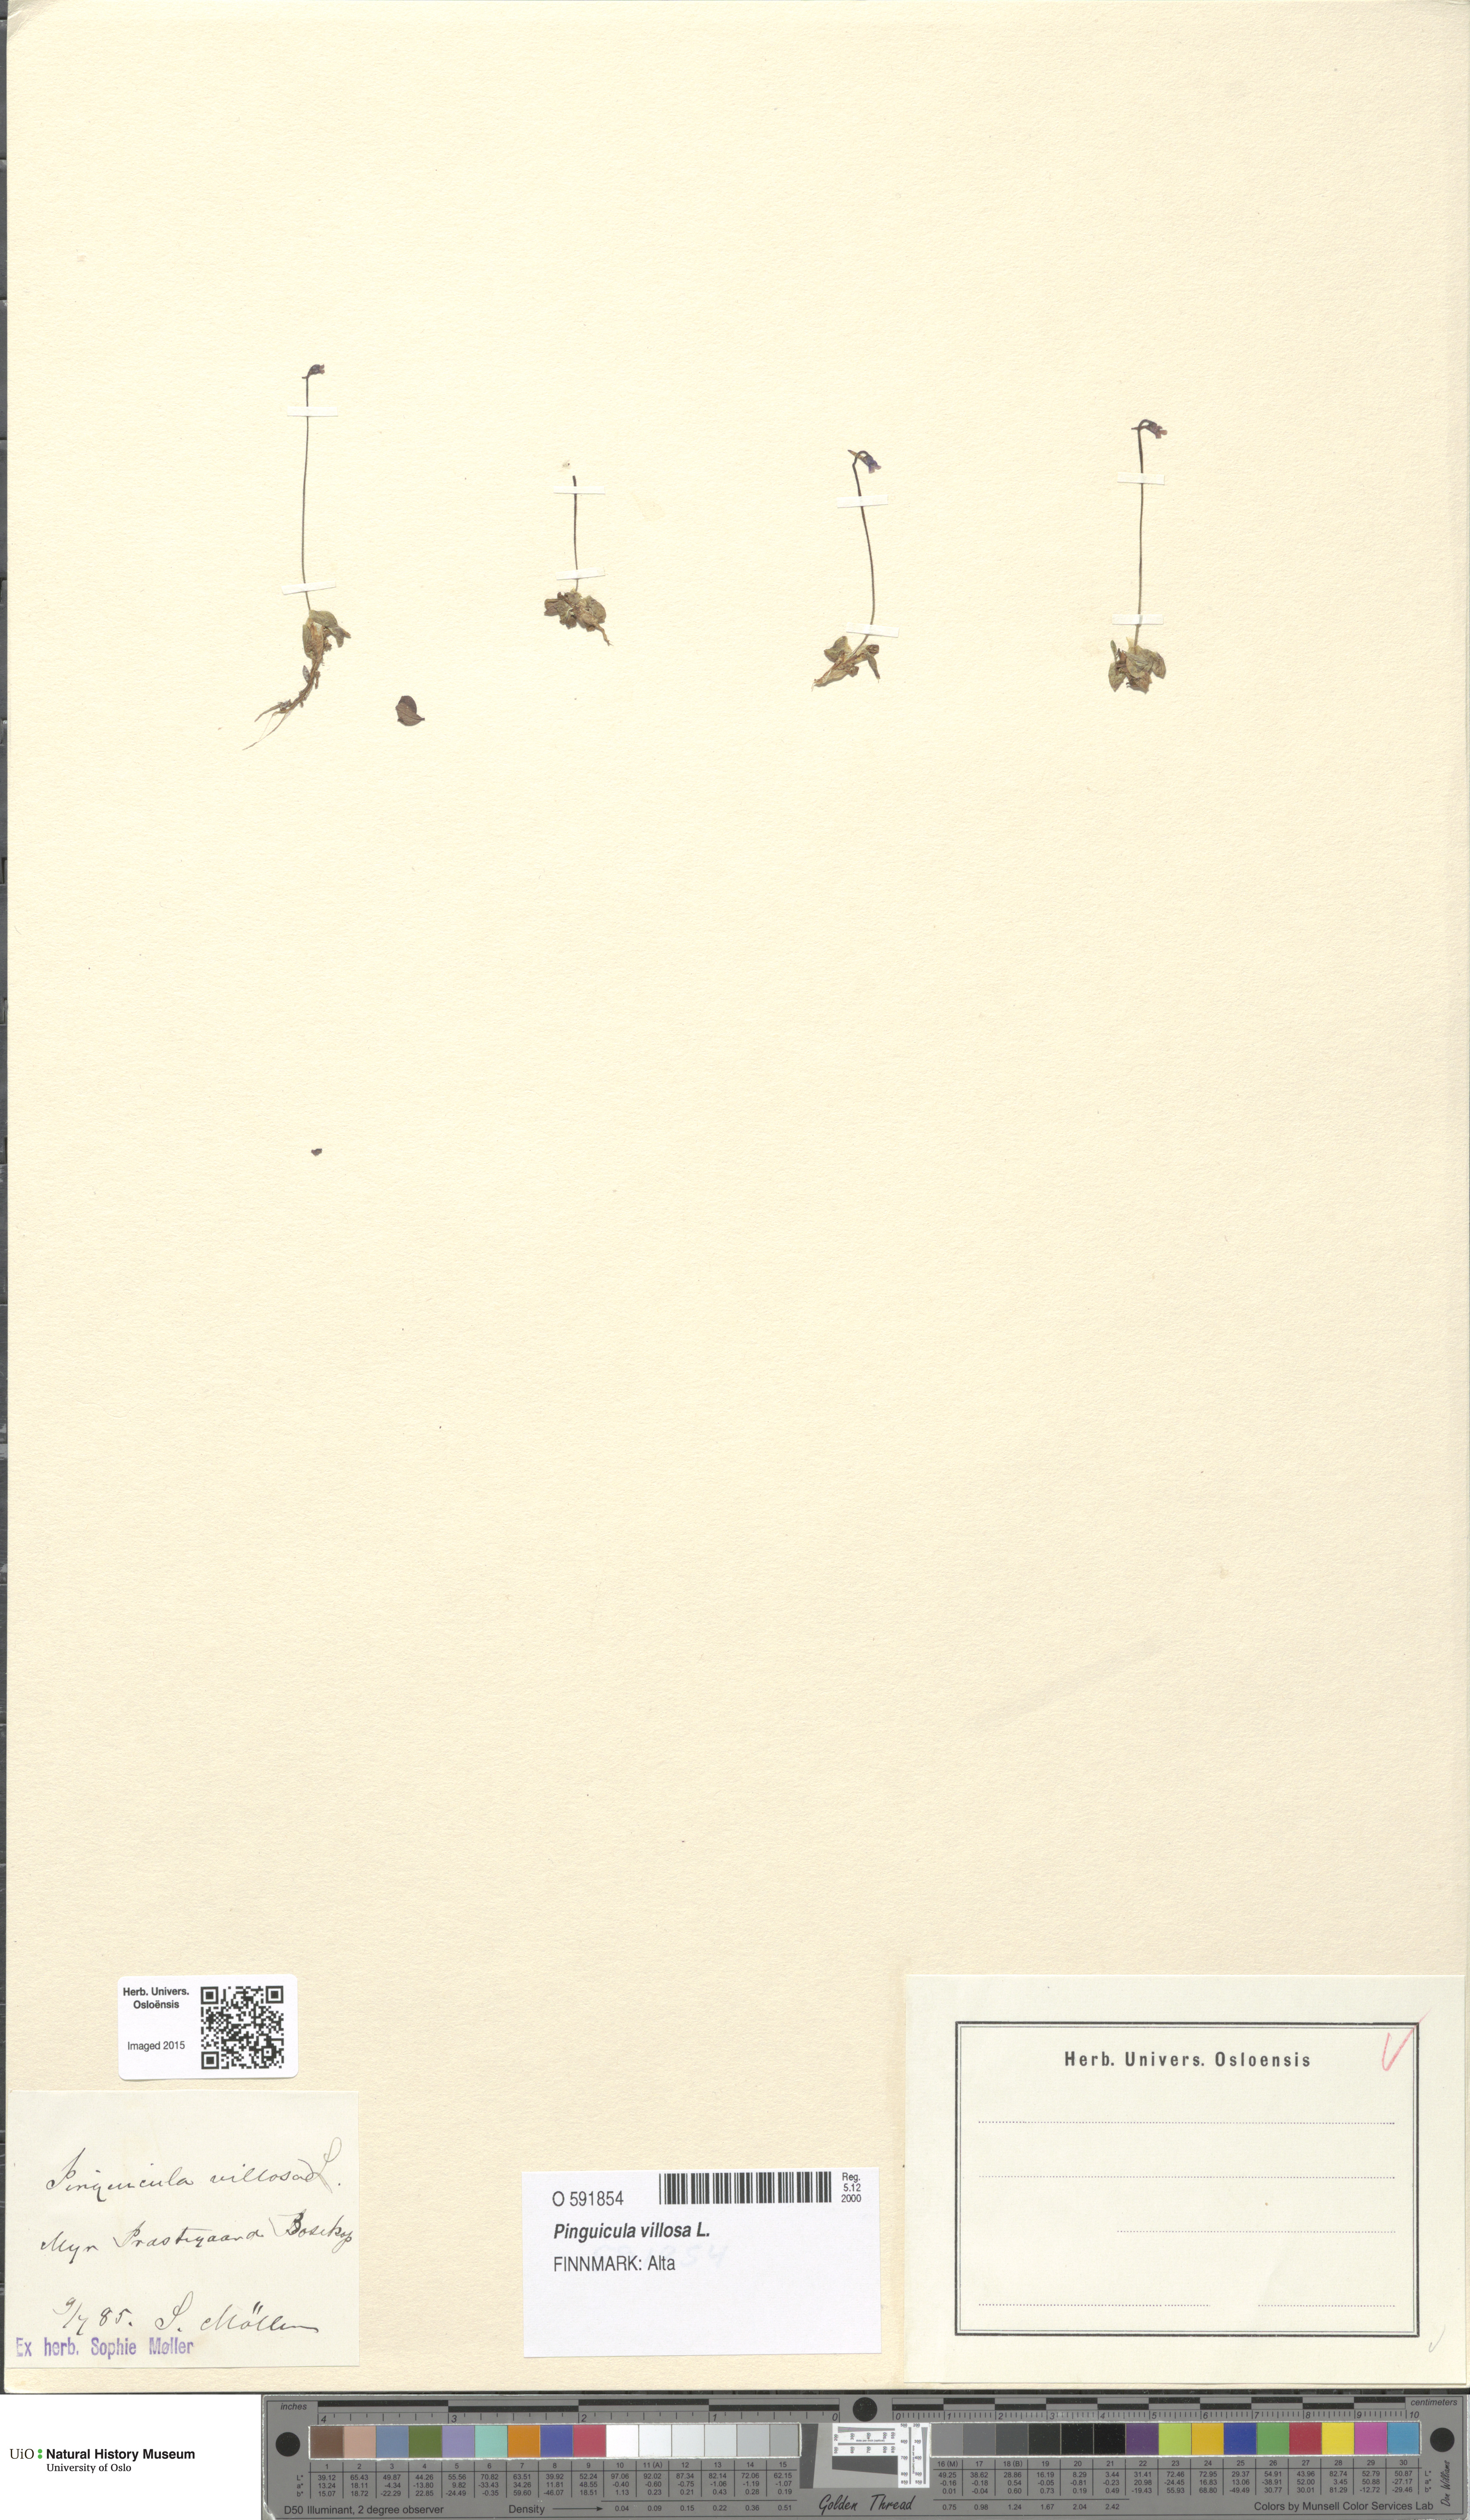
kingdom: Plantae
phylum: Tracheophyta
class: Magnoliopsida
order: Lamiales
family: Lentibulariaceae
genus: Pinguicula
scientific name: Pinguicula villosa
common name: Hairy butterwort
